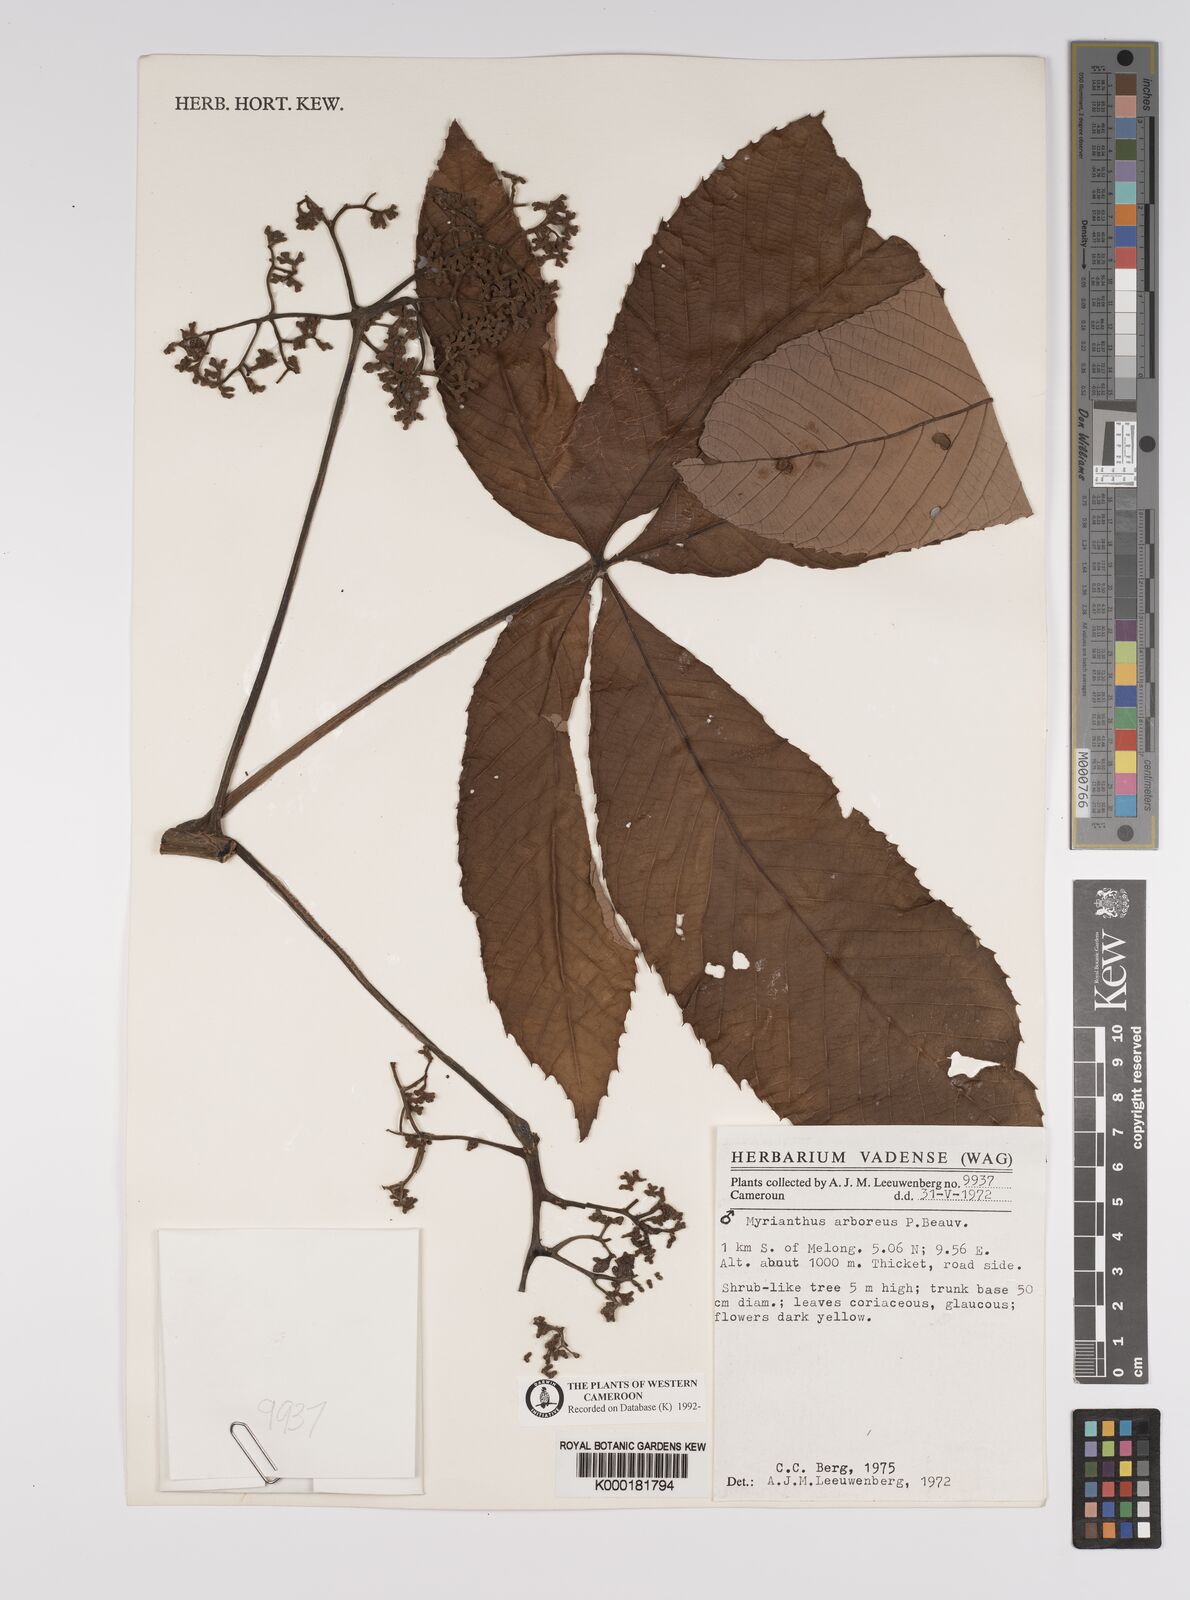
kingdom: Plantae
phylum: Tracheophyta
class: Magnoliopsida
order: Rosales
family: Urticaceae
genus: Myrianthus
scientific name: Myrianthus arboreus
